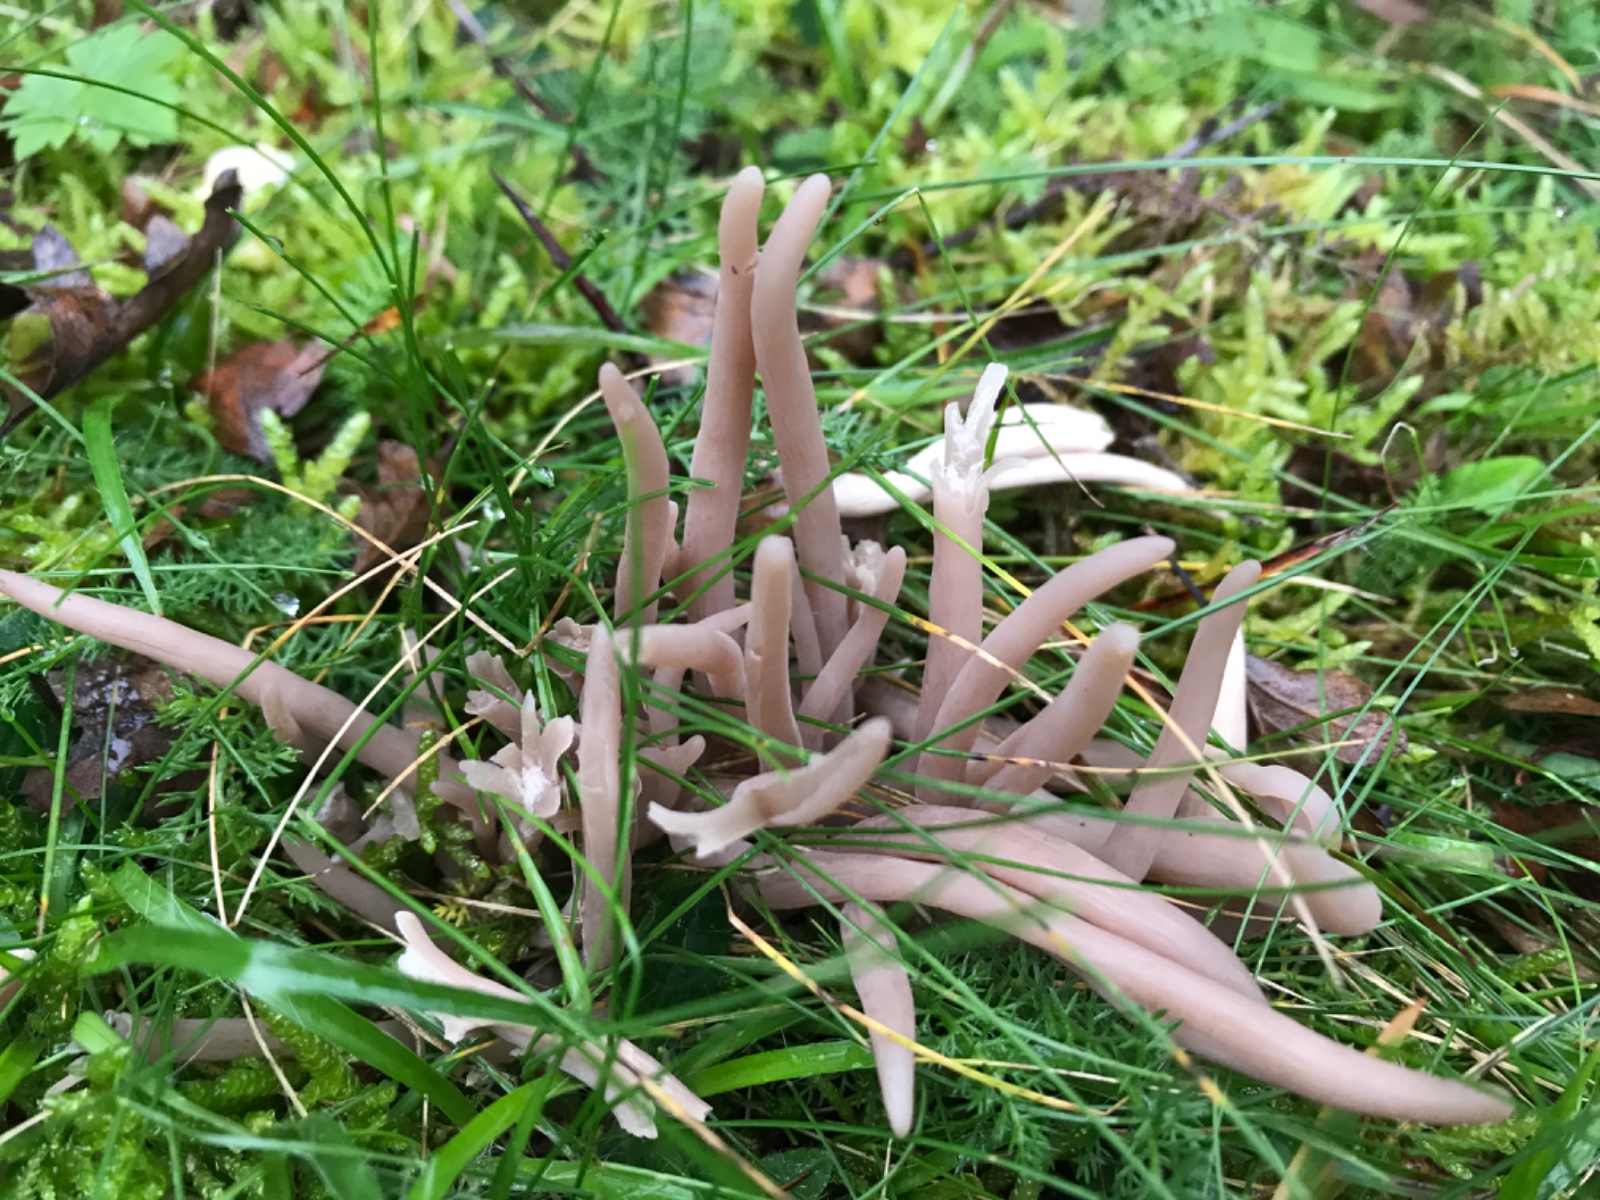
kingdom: Fungi
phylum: Basidiomycota
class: Agaricomycetes
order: Agaricales
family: Clavariaceae
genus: Clavaria
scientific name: Clavaria fumosa
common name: røggrå køllesvamp
